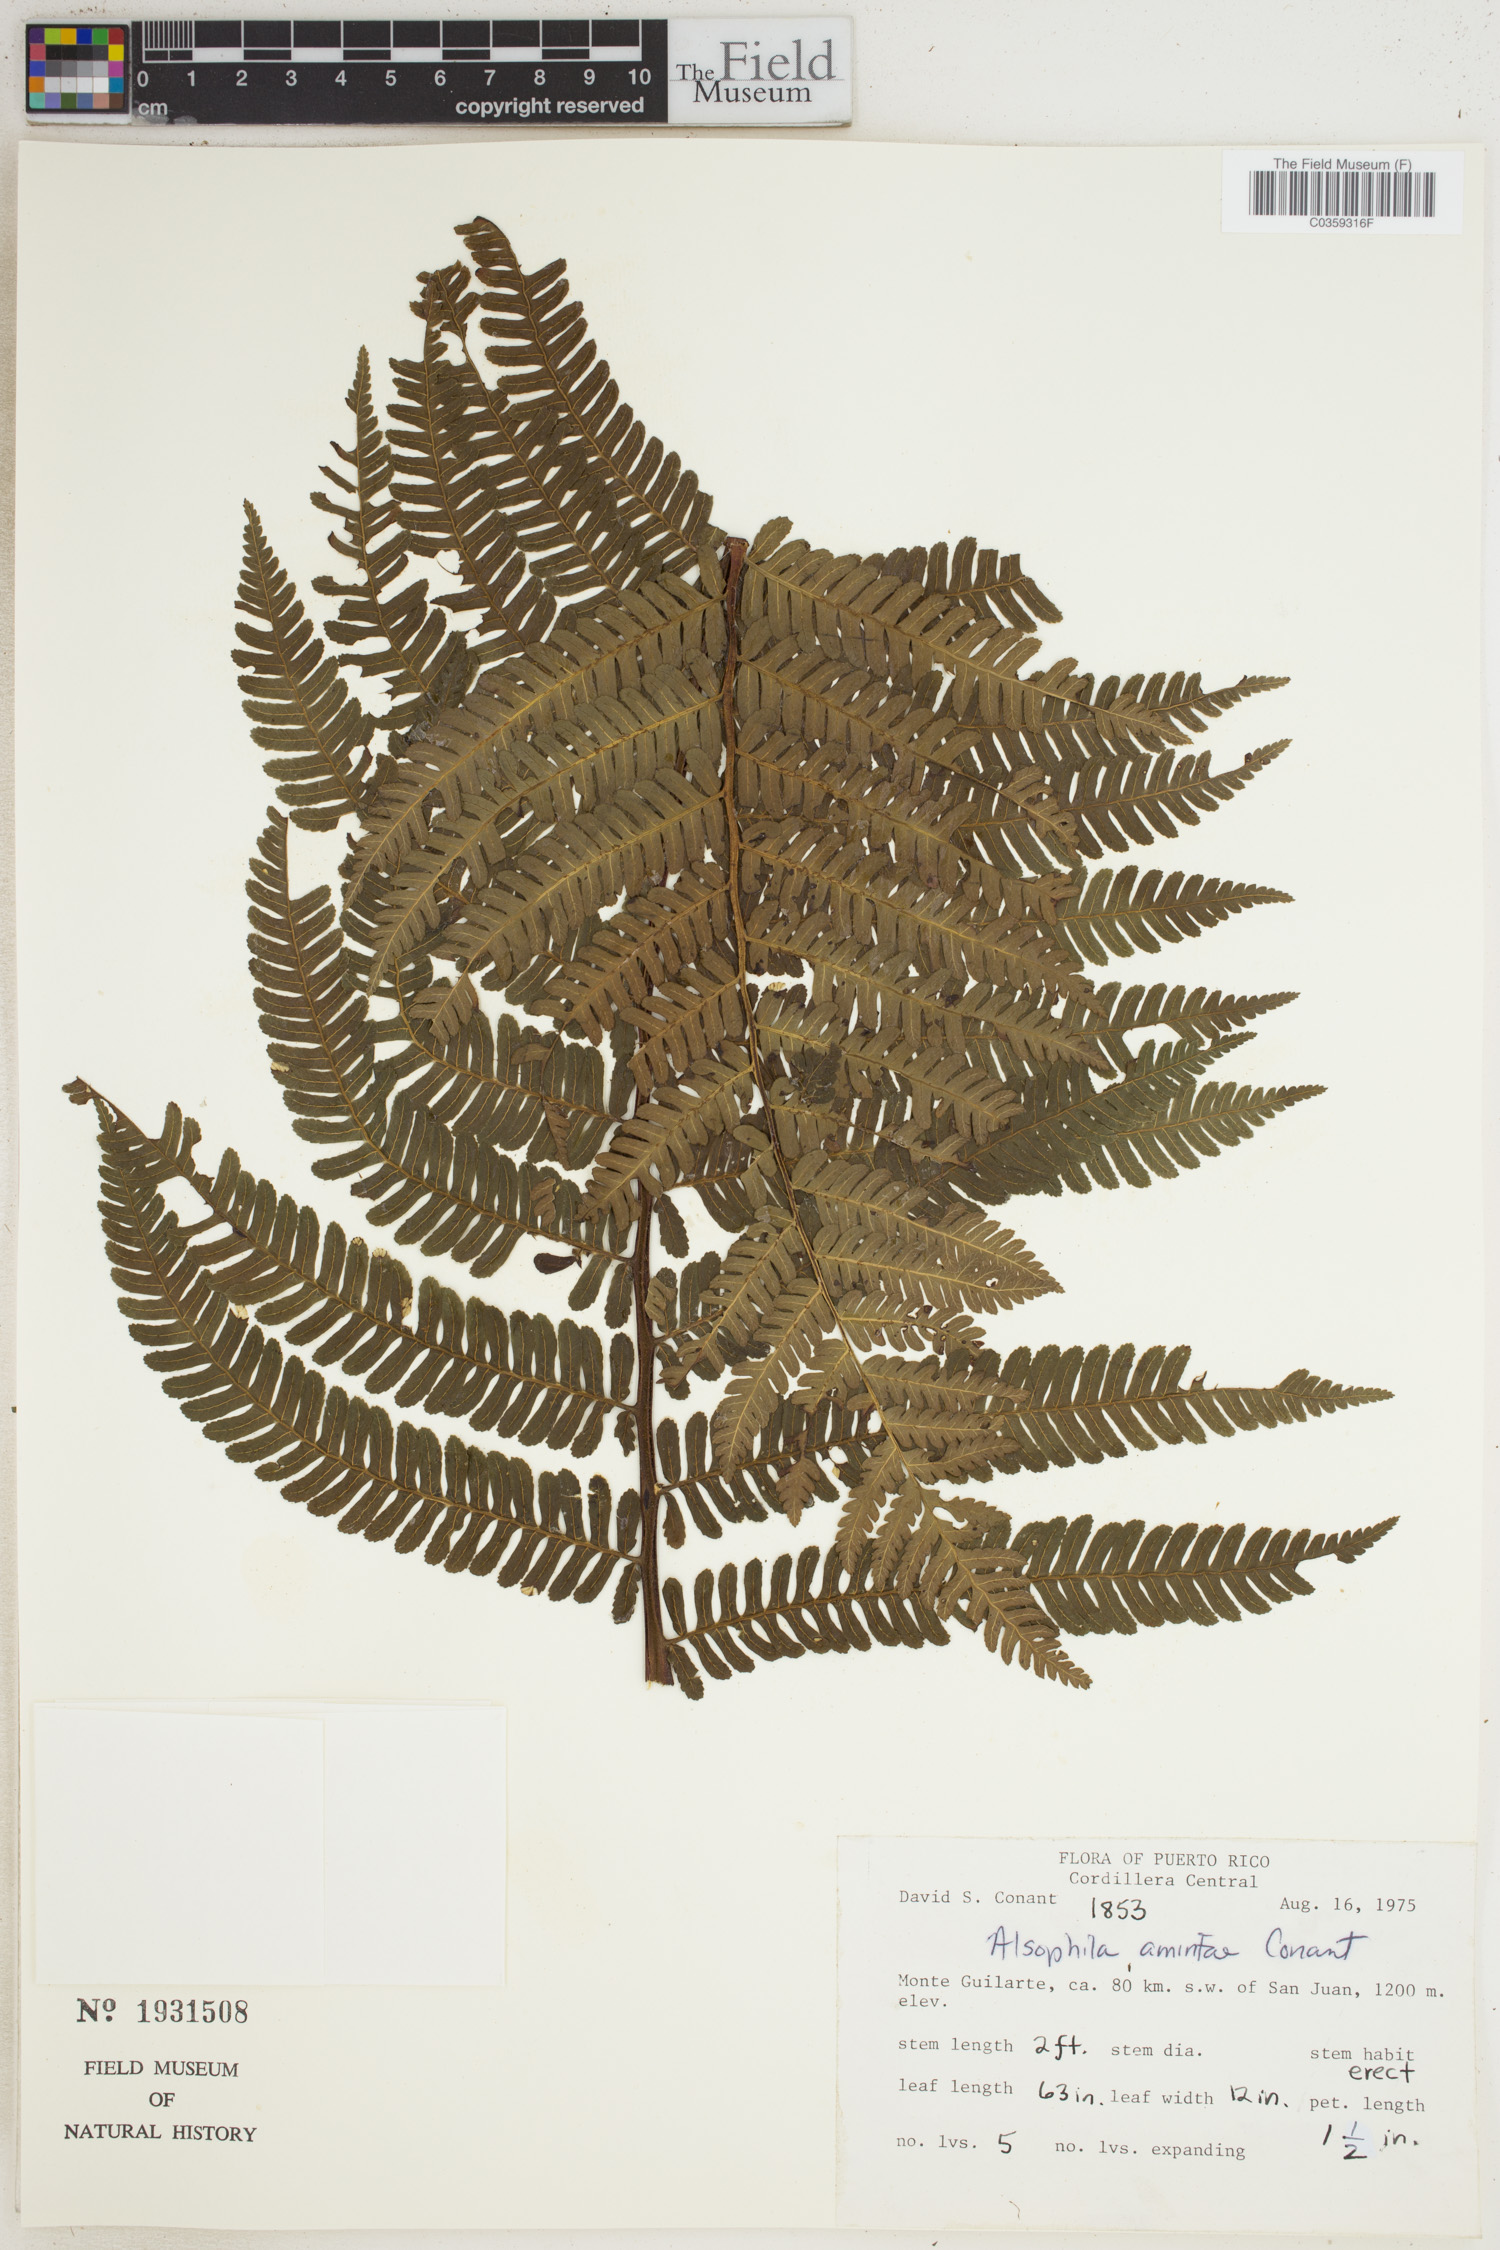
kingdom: Plantae
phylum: Tracheophyta
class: Polypodiopsida
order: Cyatheales
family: Cyatheaceae
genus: Alsophila
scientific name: Alsophila dryopteroides
